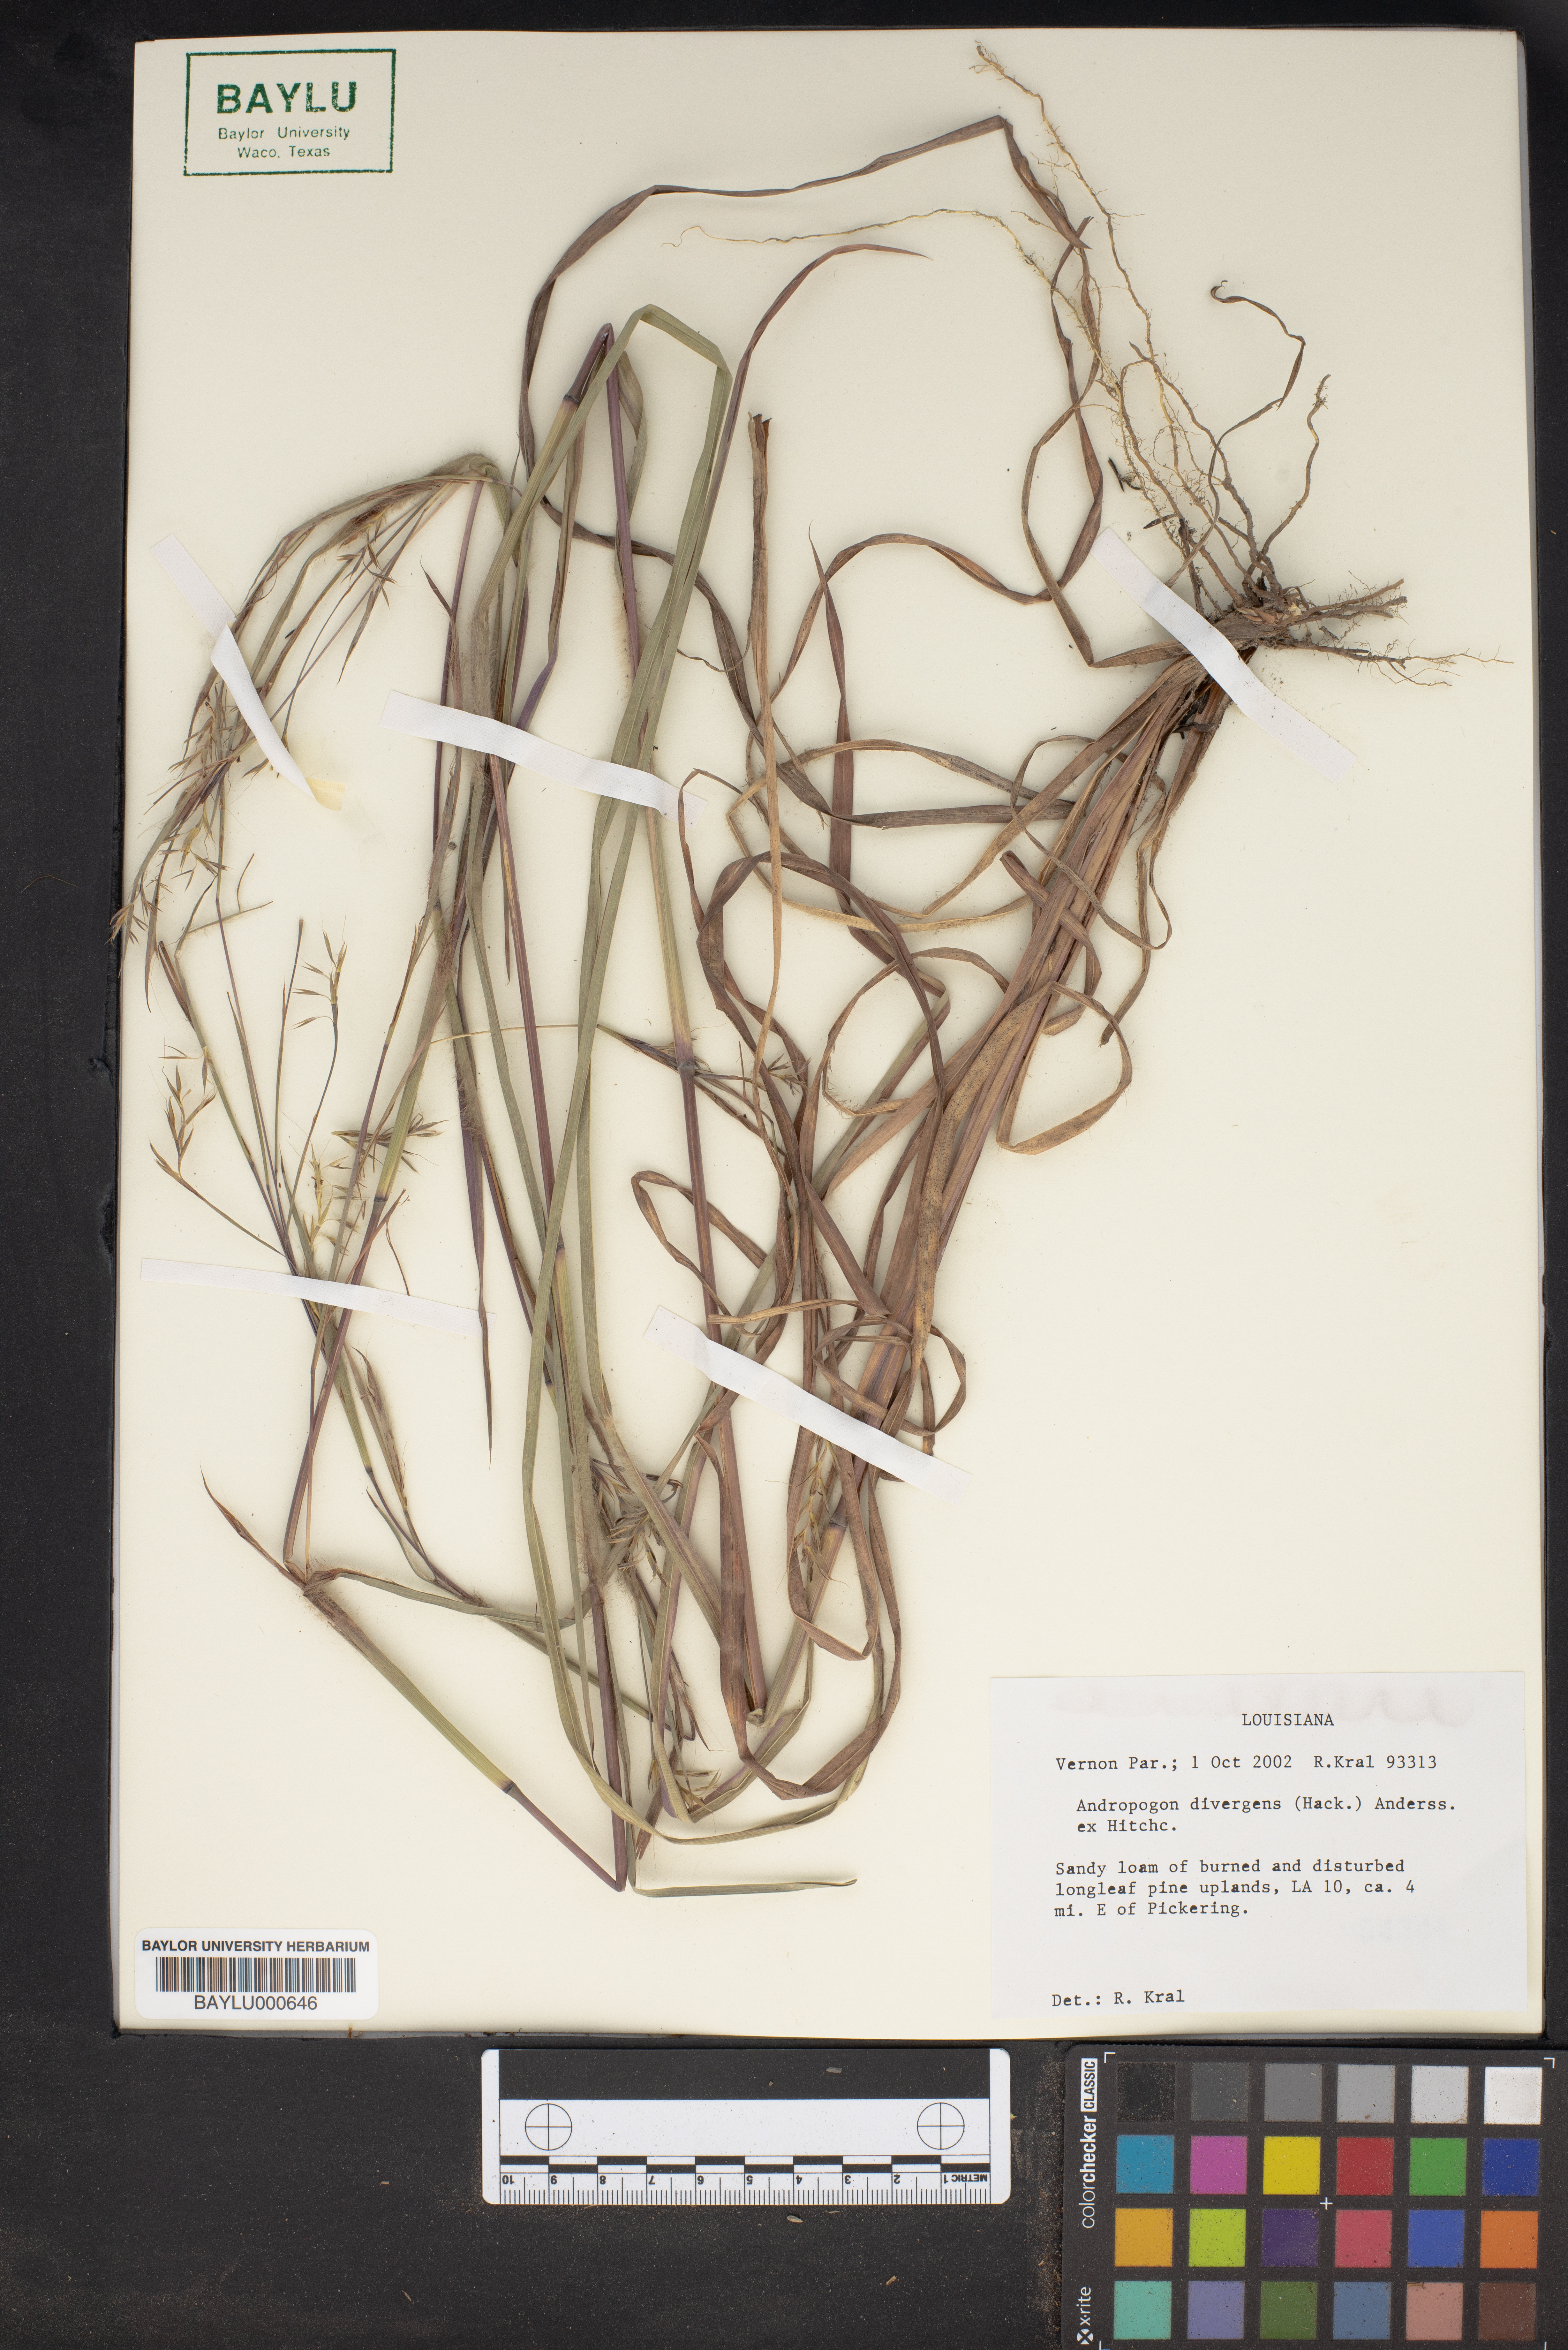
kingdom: Plantae
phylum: Tracheophyta
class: Liliopsida
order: Poales
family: Poaceae
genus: Schizachyrium
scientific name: Schizachyrium scoparium
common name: Little bluestem
